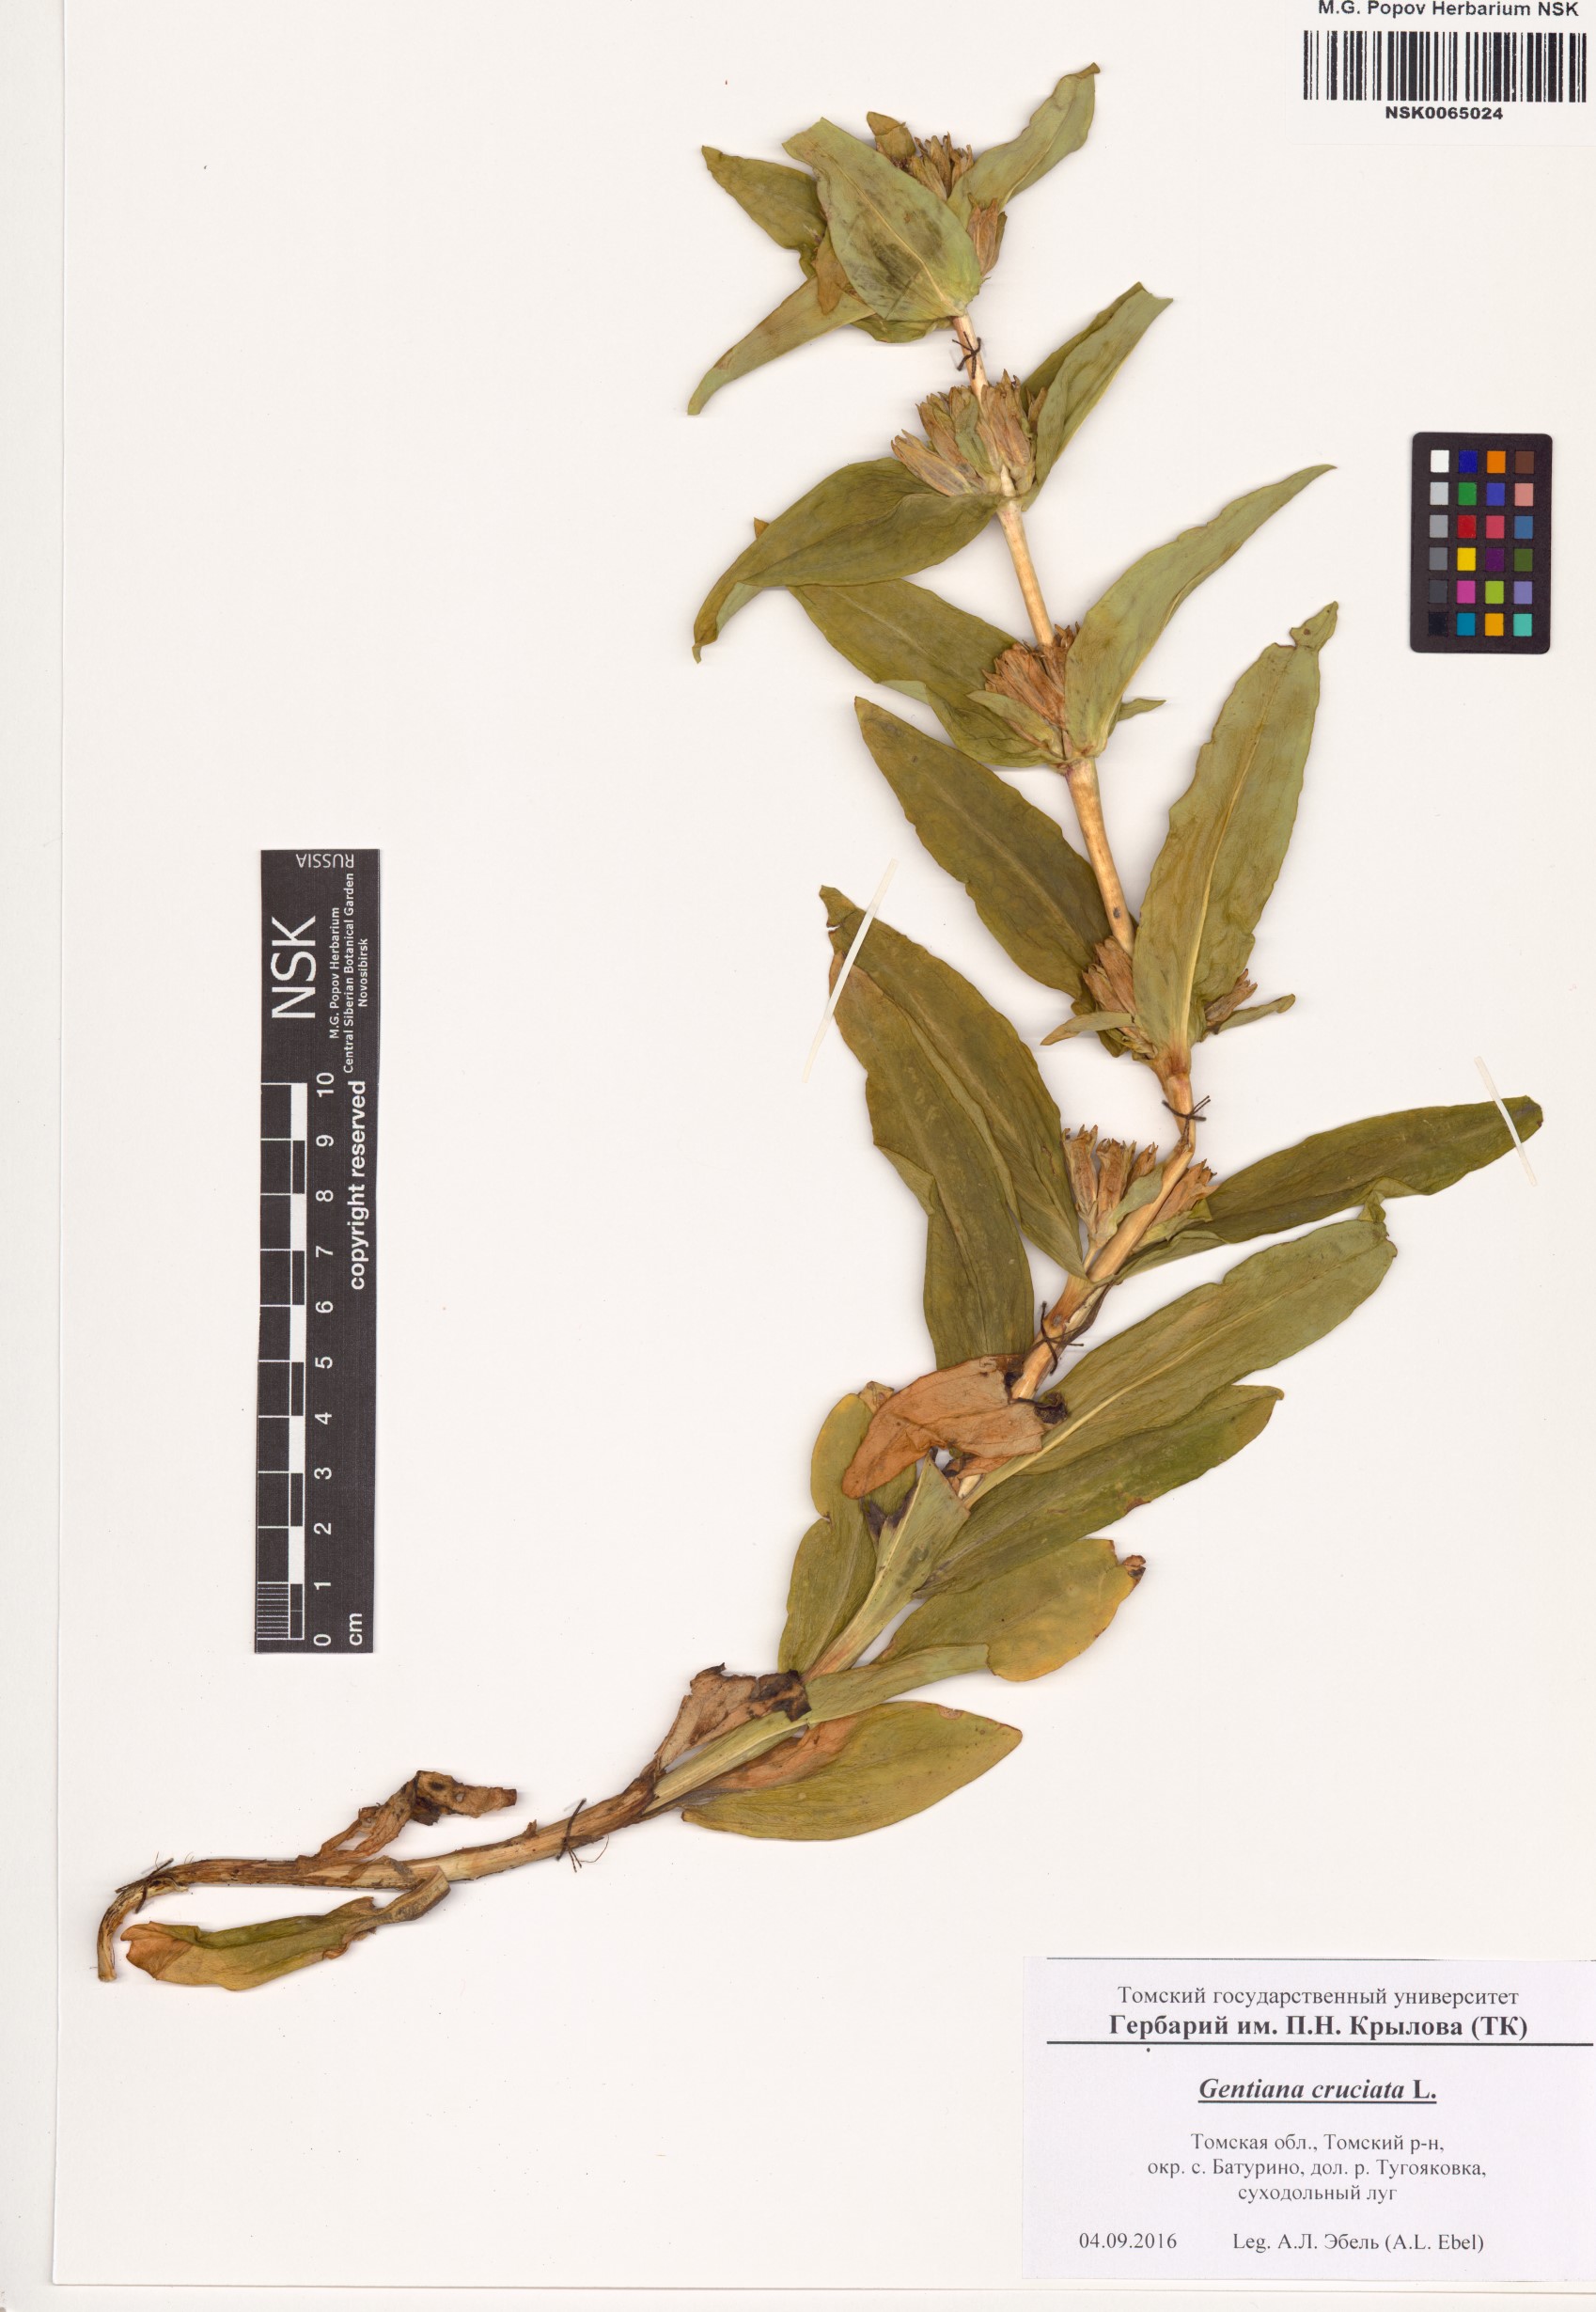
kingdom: Plantae
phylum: Tracheophyta
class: Magnoliopsida
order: Gentianales
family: Gentianaceae
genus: Gentiana
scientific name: Gentiana cruciata
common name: Cross gentian
